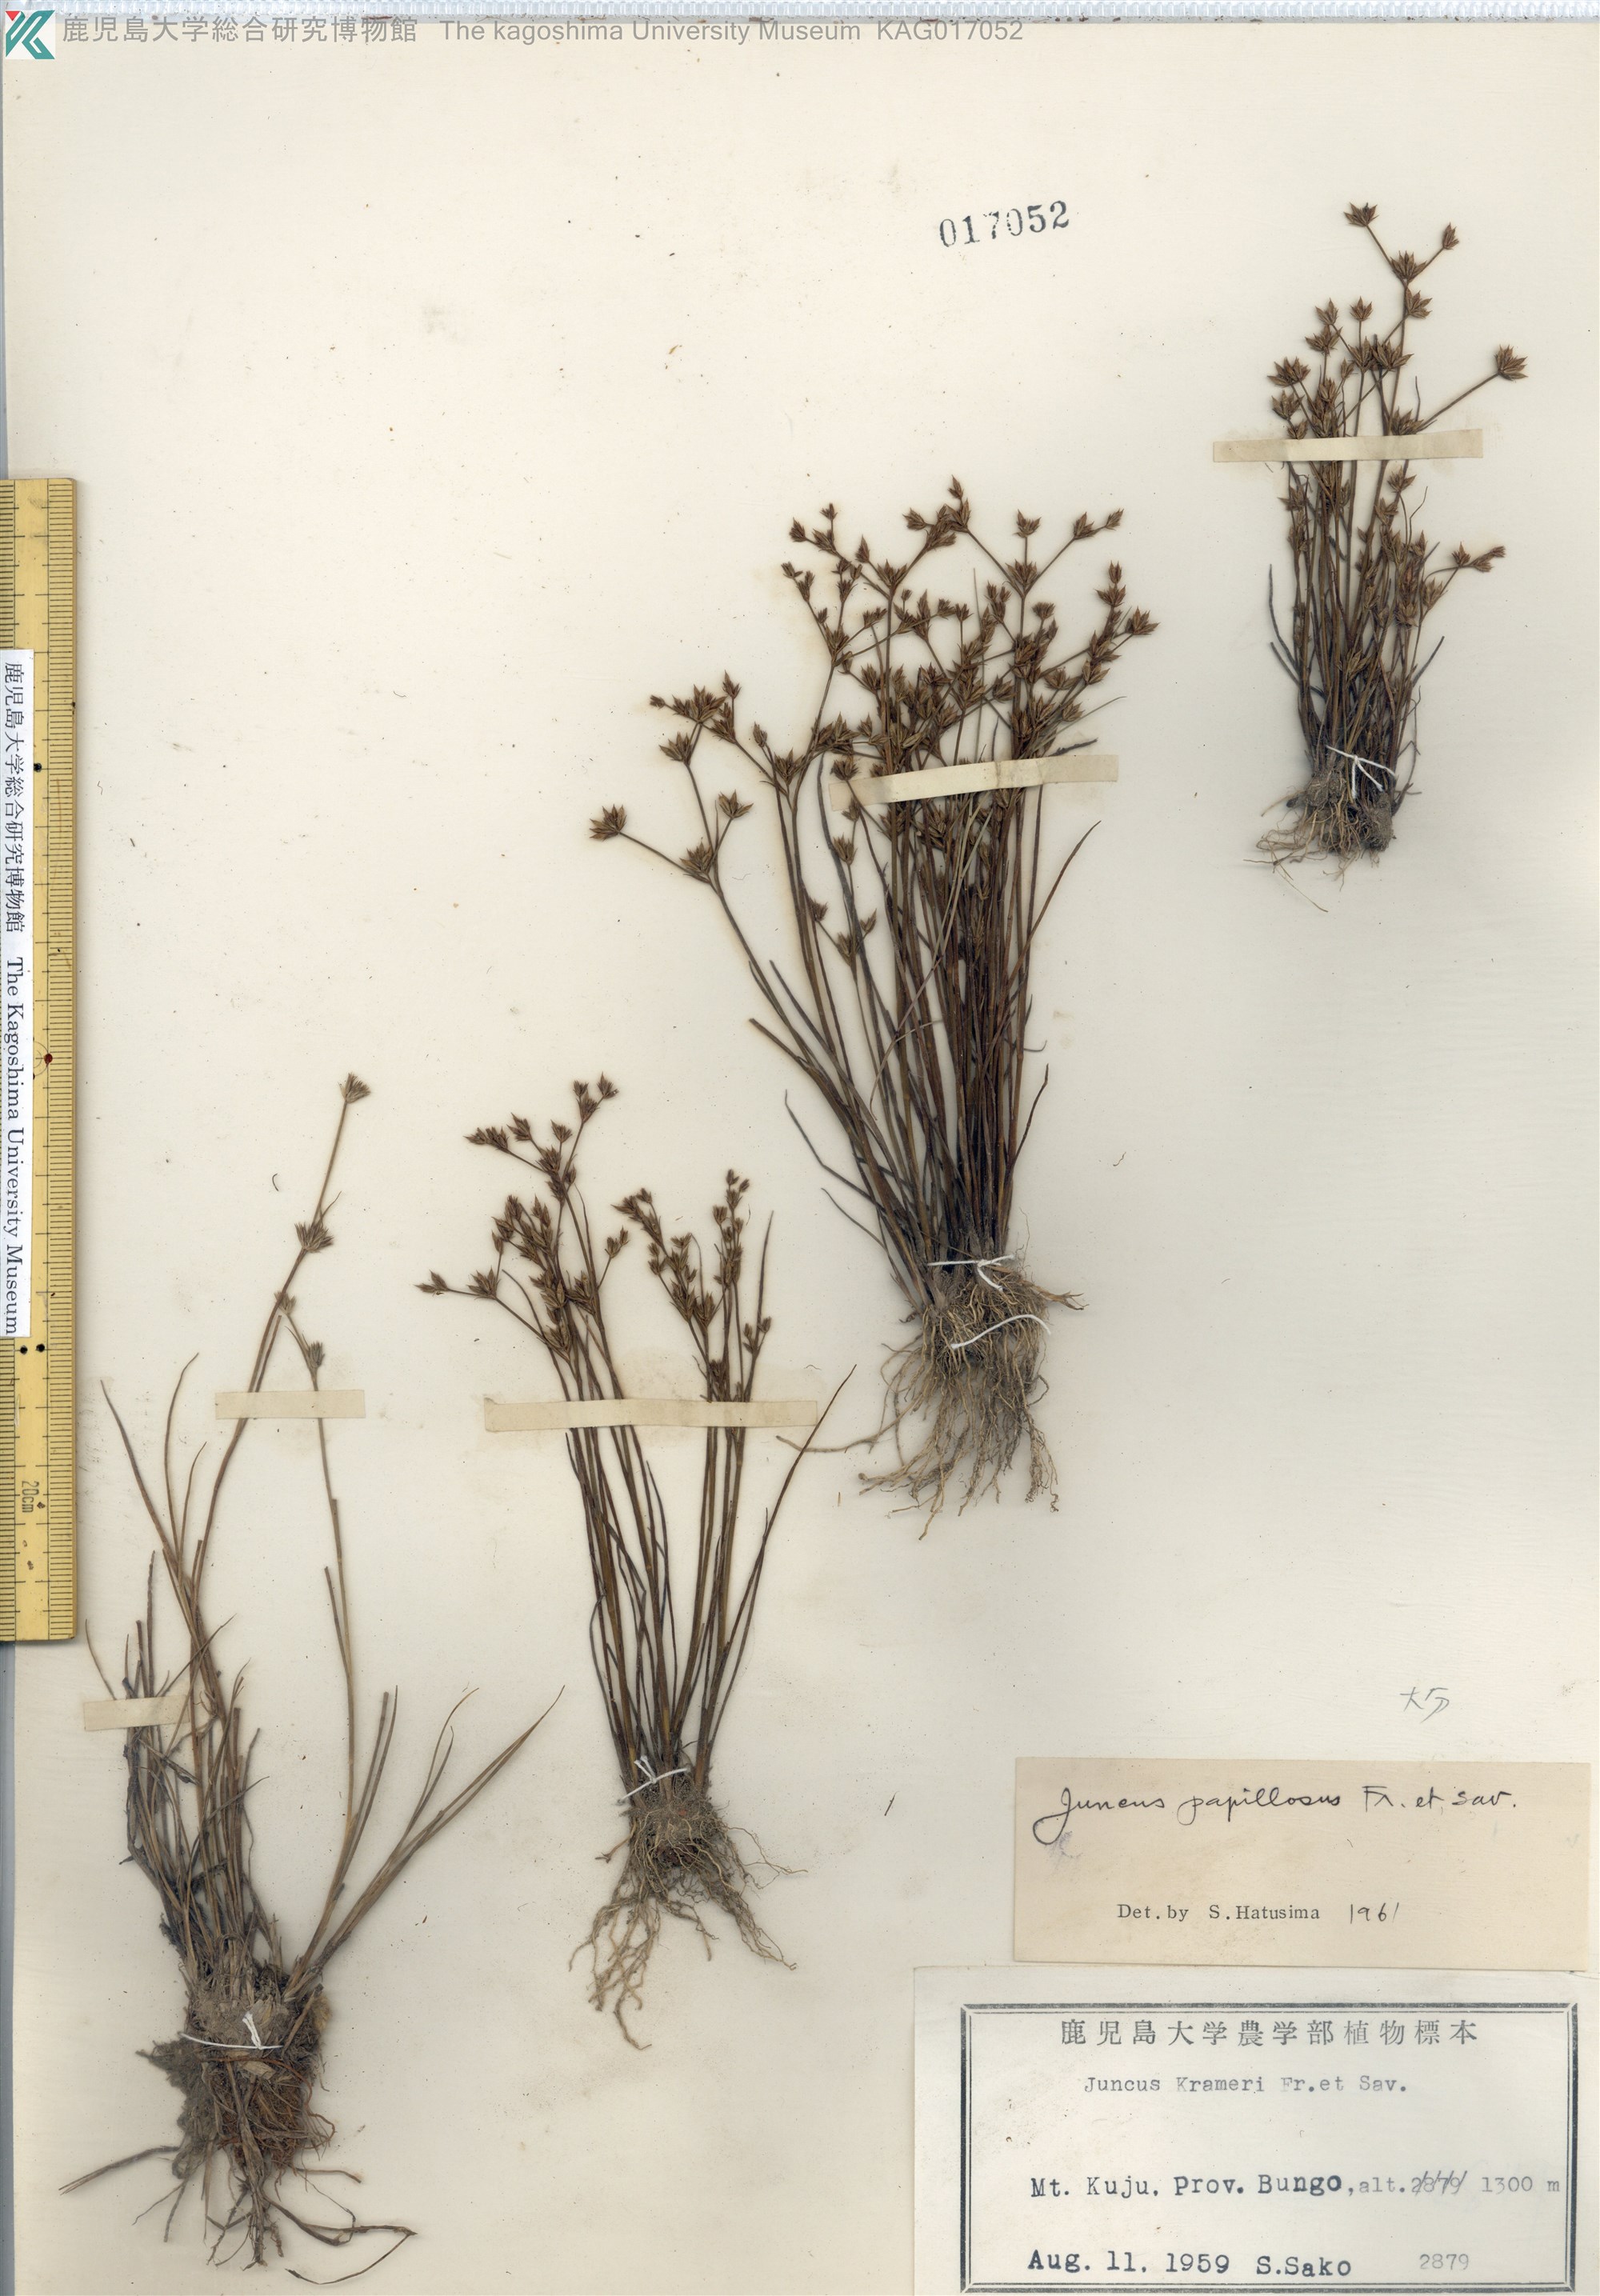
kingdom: Plantae
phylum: Tracheophyta
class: Liliopsida
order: Poales
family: Juncaceae
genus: Juncus
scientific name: Juncus papillosus
